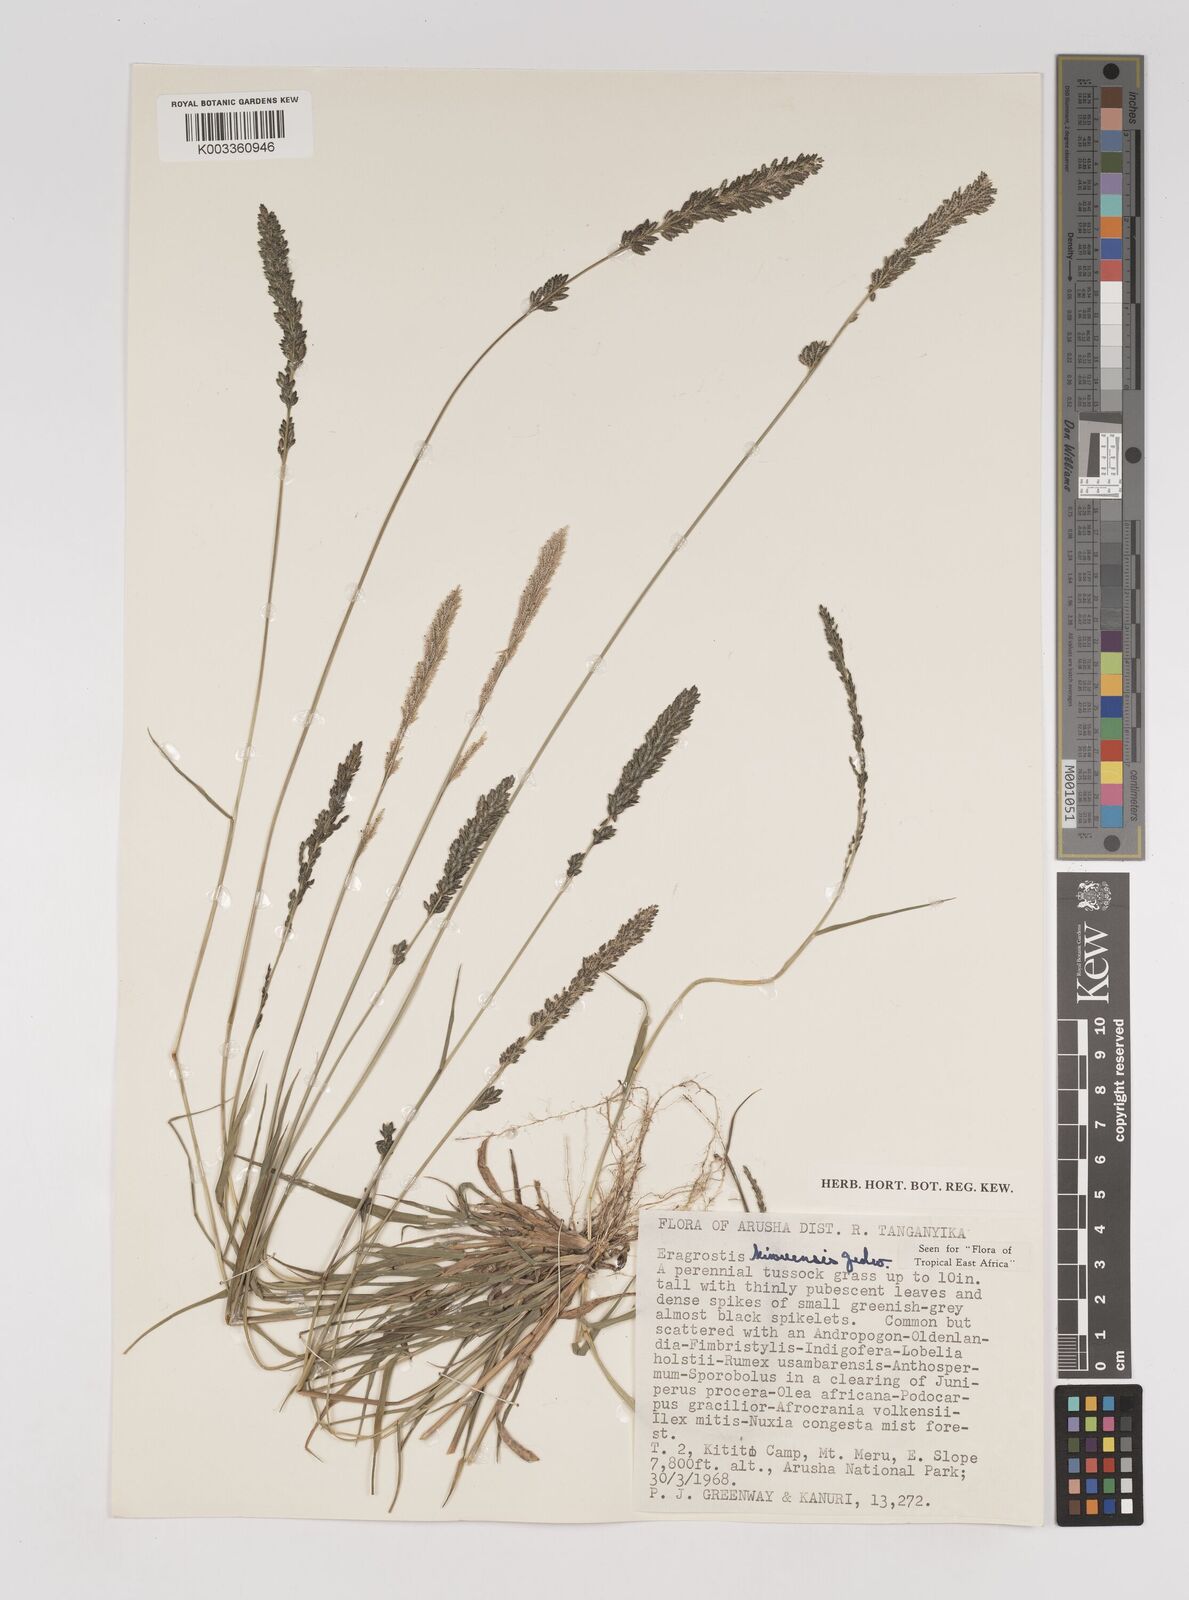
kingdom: Plantae
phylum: Tracheophyta
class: Liliopsida
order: Poales
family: Poaceae
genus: Eragrostis
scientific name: Eragrostis schweinfurthii
